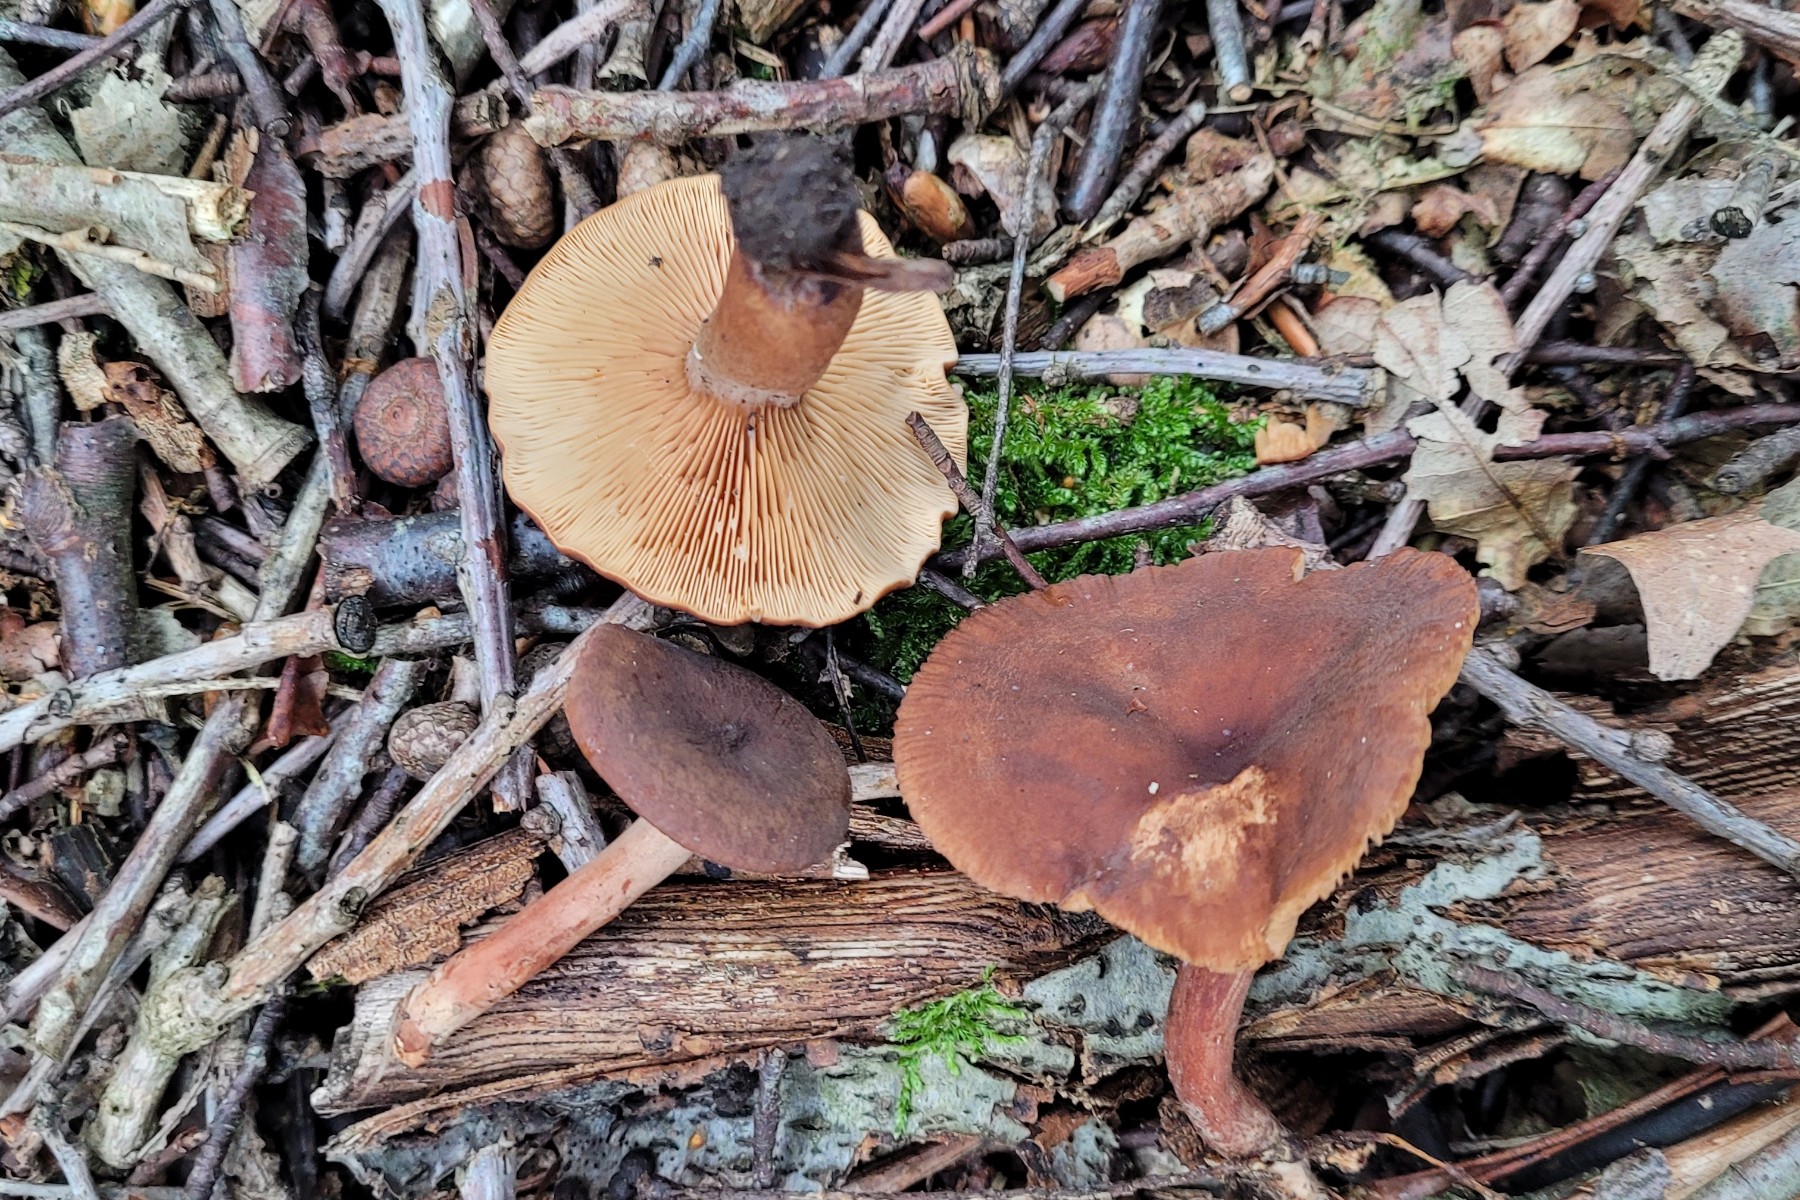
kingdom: Fungi
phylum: Basidiomycota
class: Agaricomycetes
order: Russulales
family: Russulaceae
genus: Lactarius
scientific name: Lactarius serifluus
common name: tæge-mælkehat
